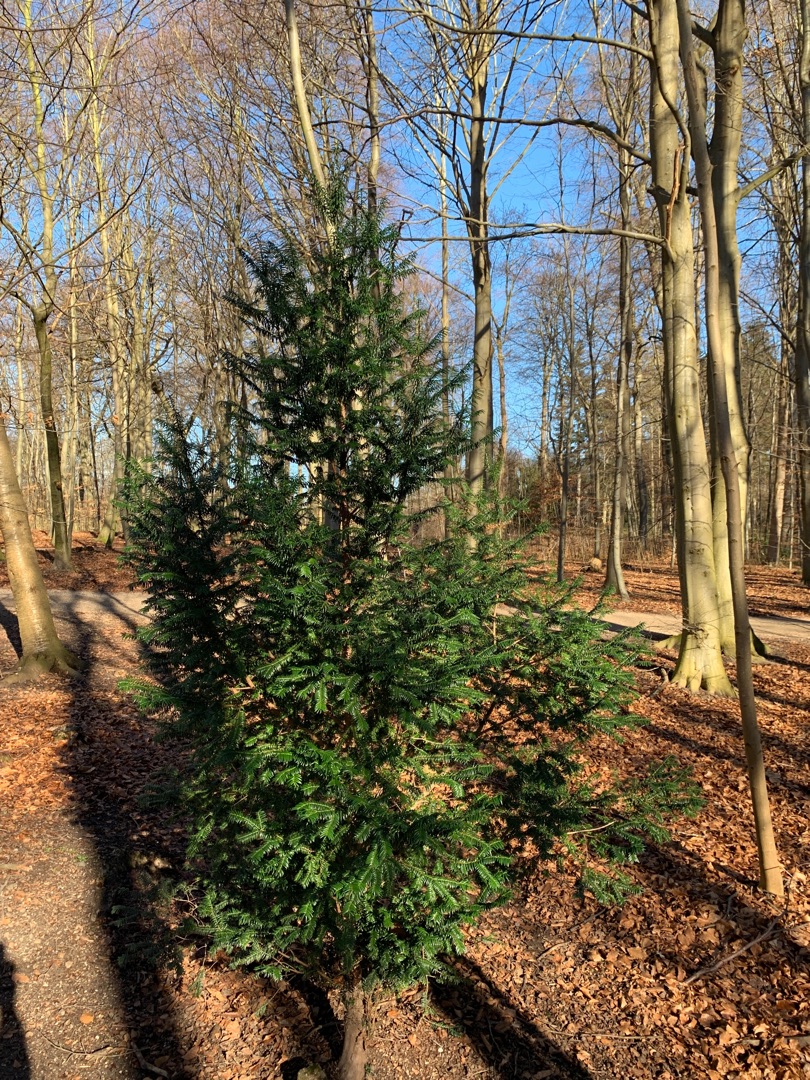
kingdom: Plantae
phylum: Tracheophyta
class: Pinopsida
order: Pinales
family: Taxaceae
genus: Taxus
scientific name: Taxus
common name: Taksslægten
